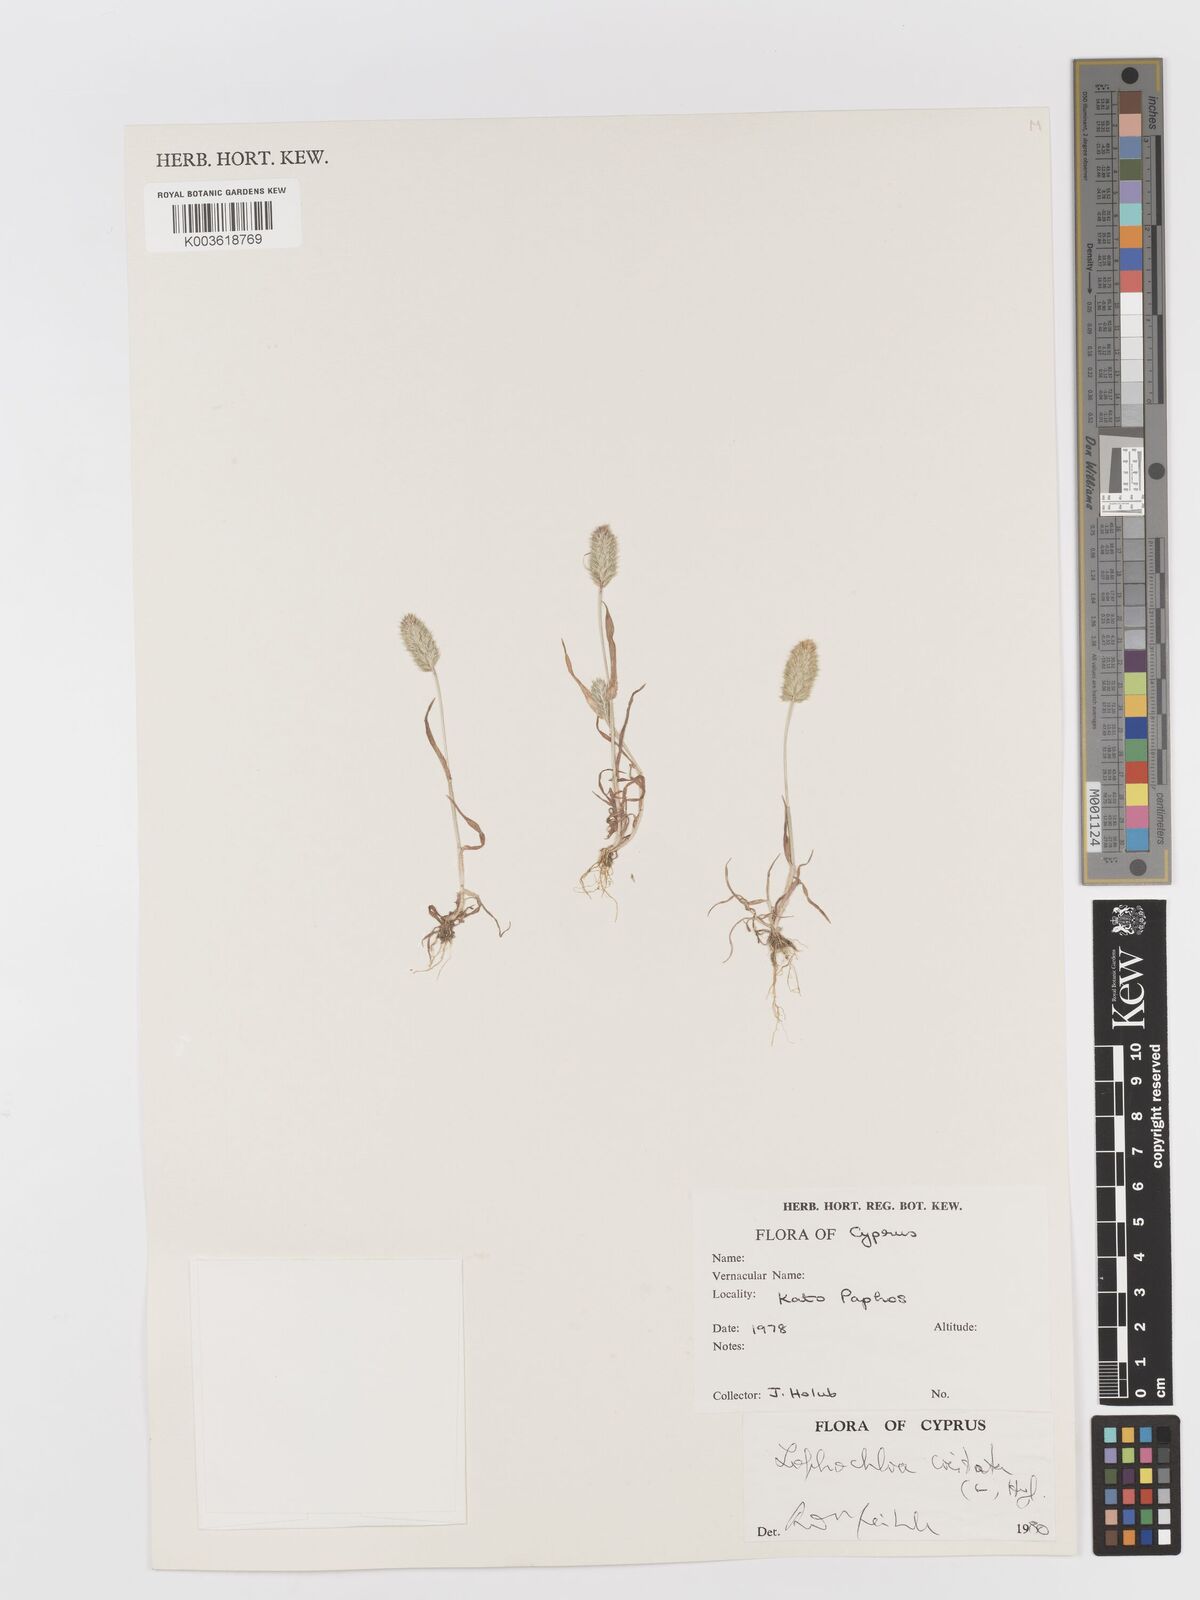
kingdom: Plantae
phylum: Tracheophyta
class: Liliopsida
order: Poales
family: Poaceae
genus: Rostraria
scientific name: Rostraria cristata
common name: Mediterranean hair-grass
